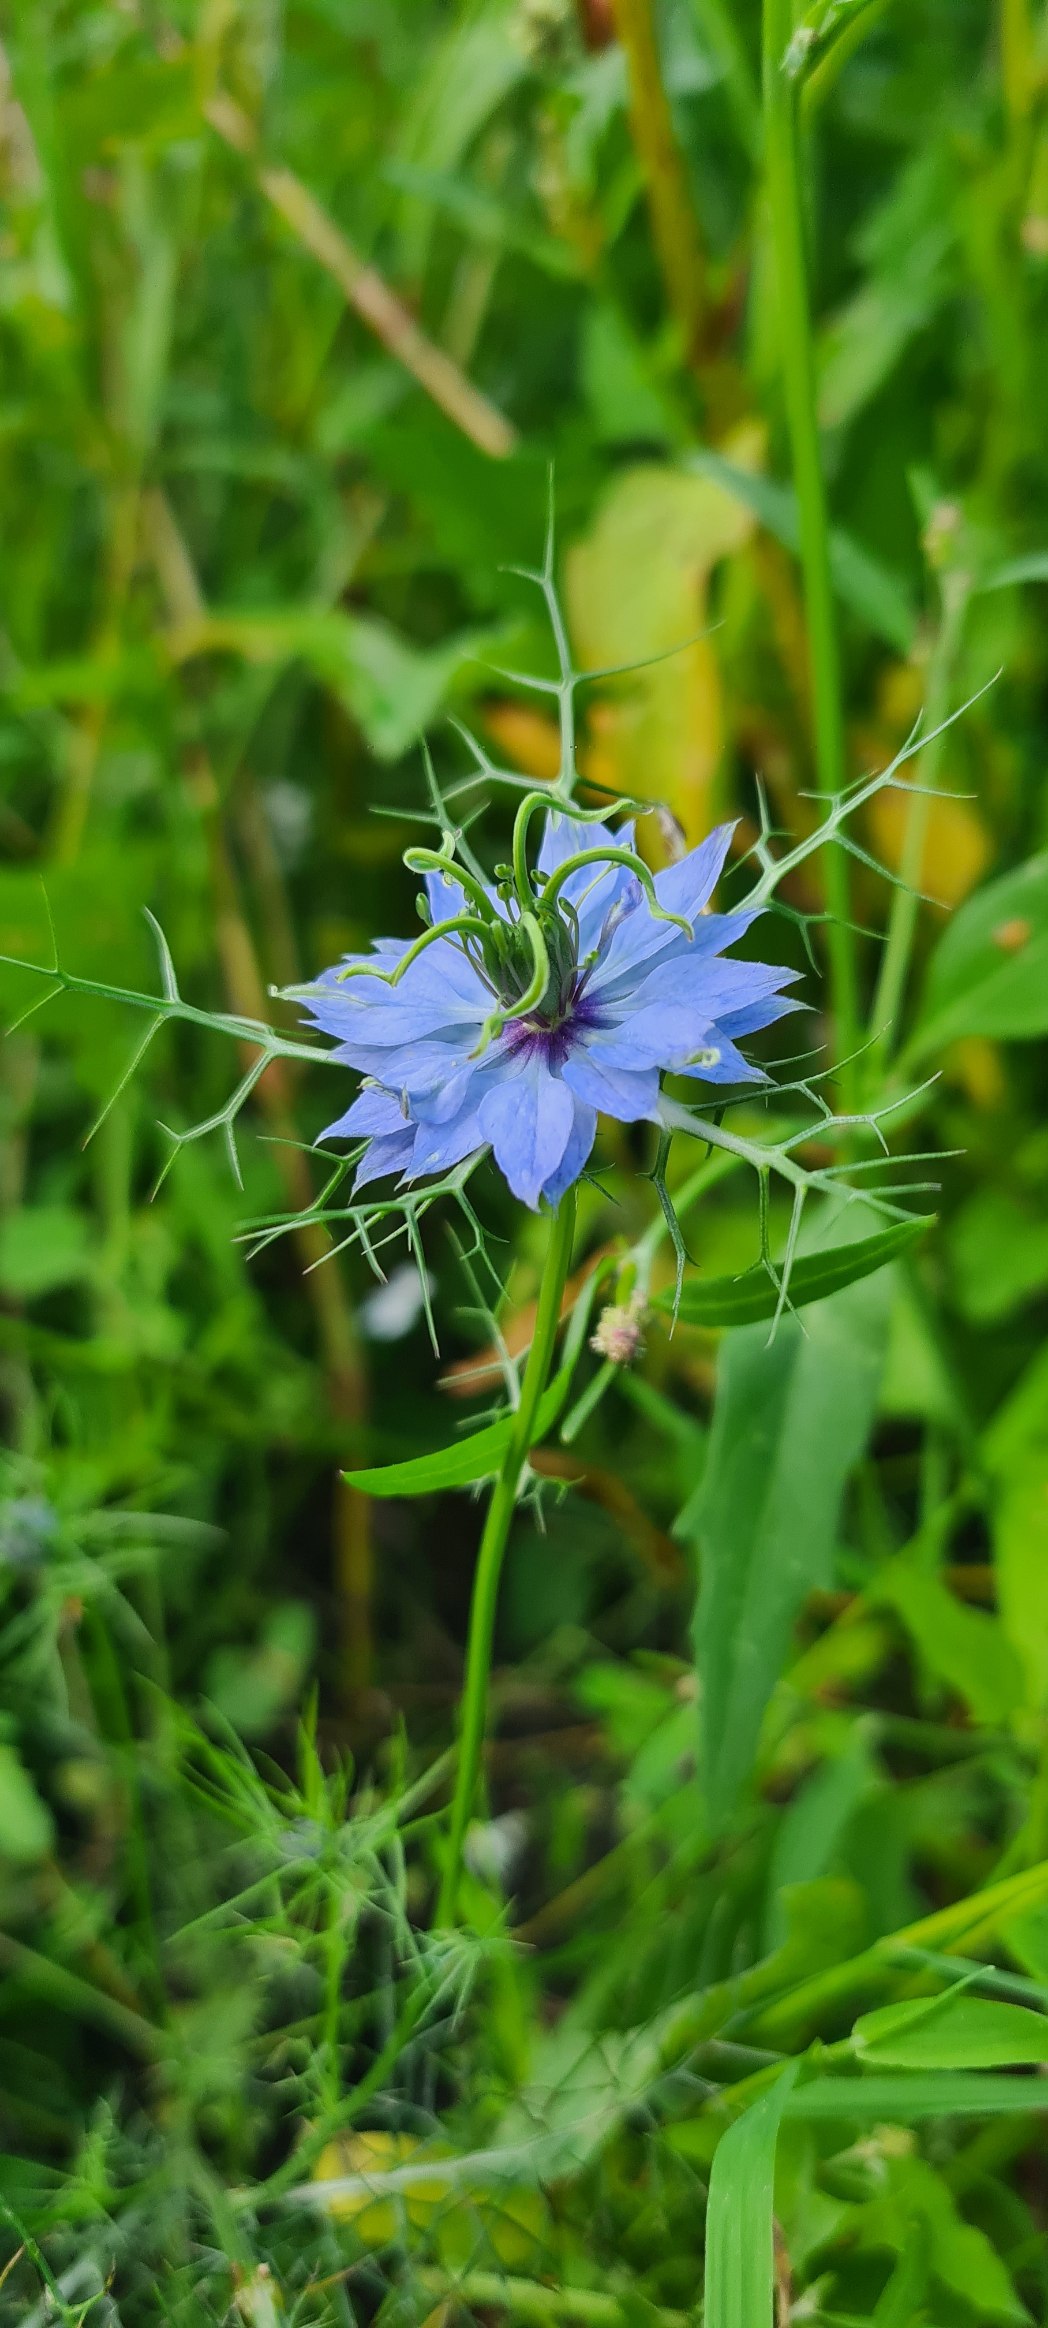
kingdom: Plantae
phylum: Tracheophyta
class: Magnoliopsida
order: Ranunculales
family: Ranunculaceae
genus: Nigella
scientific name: Nigella damascena
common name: Jomfru i det grønne
